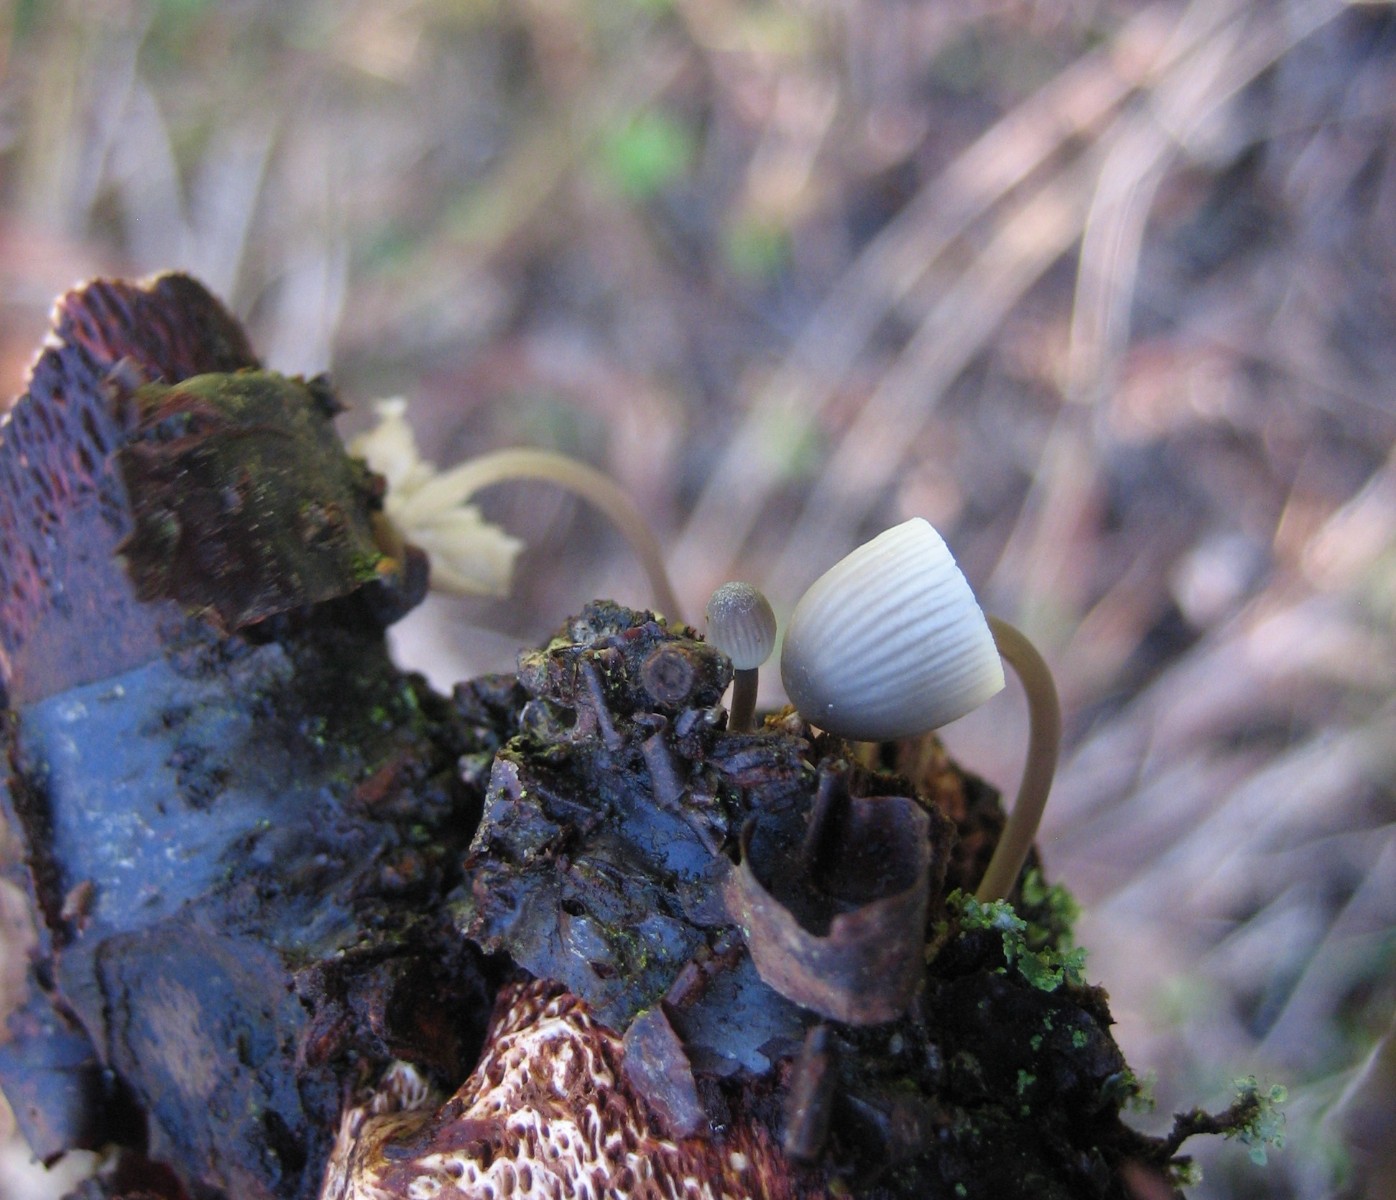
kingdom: Fungi
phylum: Basidiomycota
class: Agaricomycetes
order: Agaricales
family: Mycenaceae
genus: Mycena
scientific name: Mycena arcangeliana
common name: oliven-huesvamp
